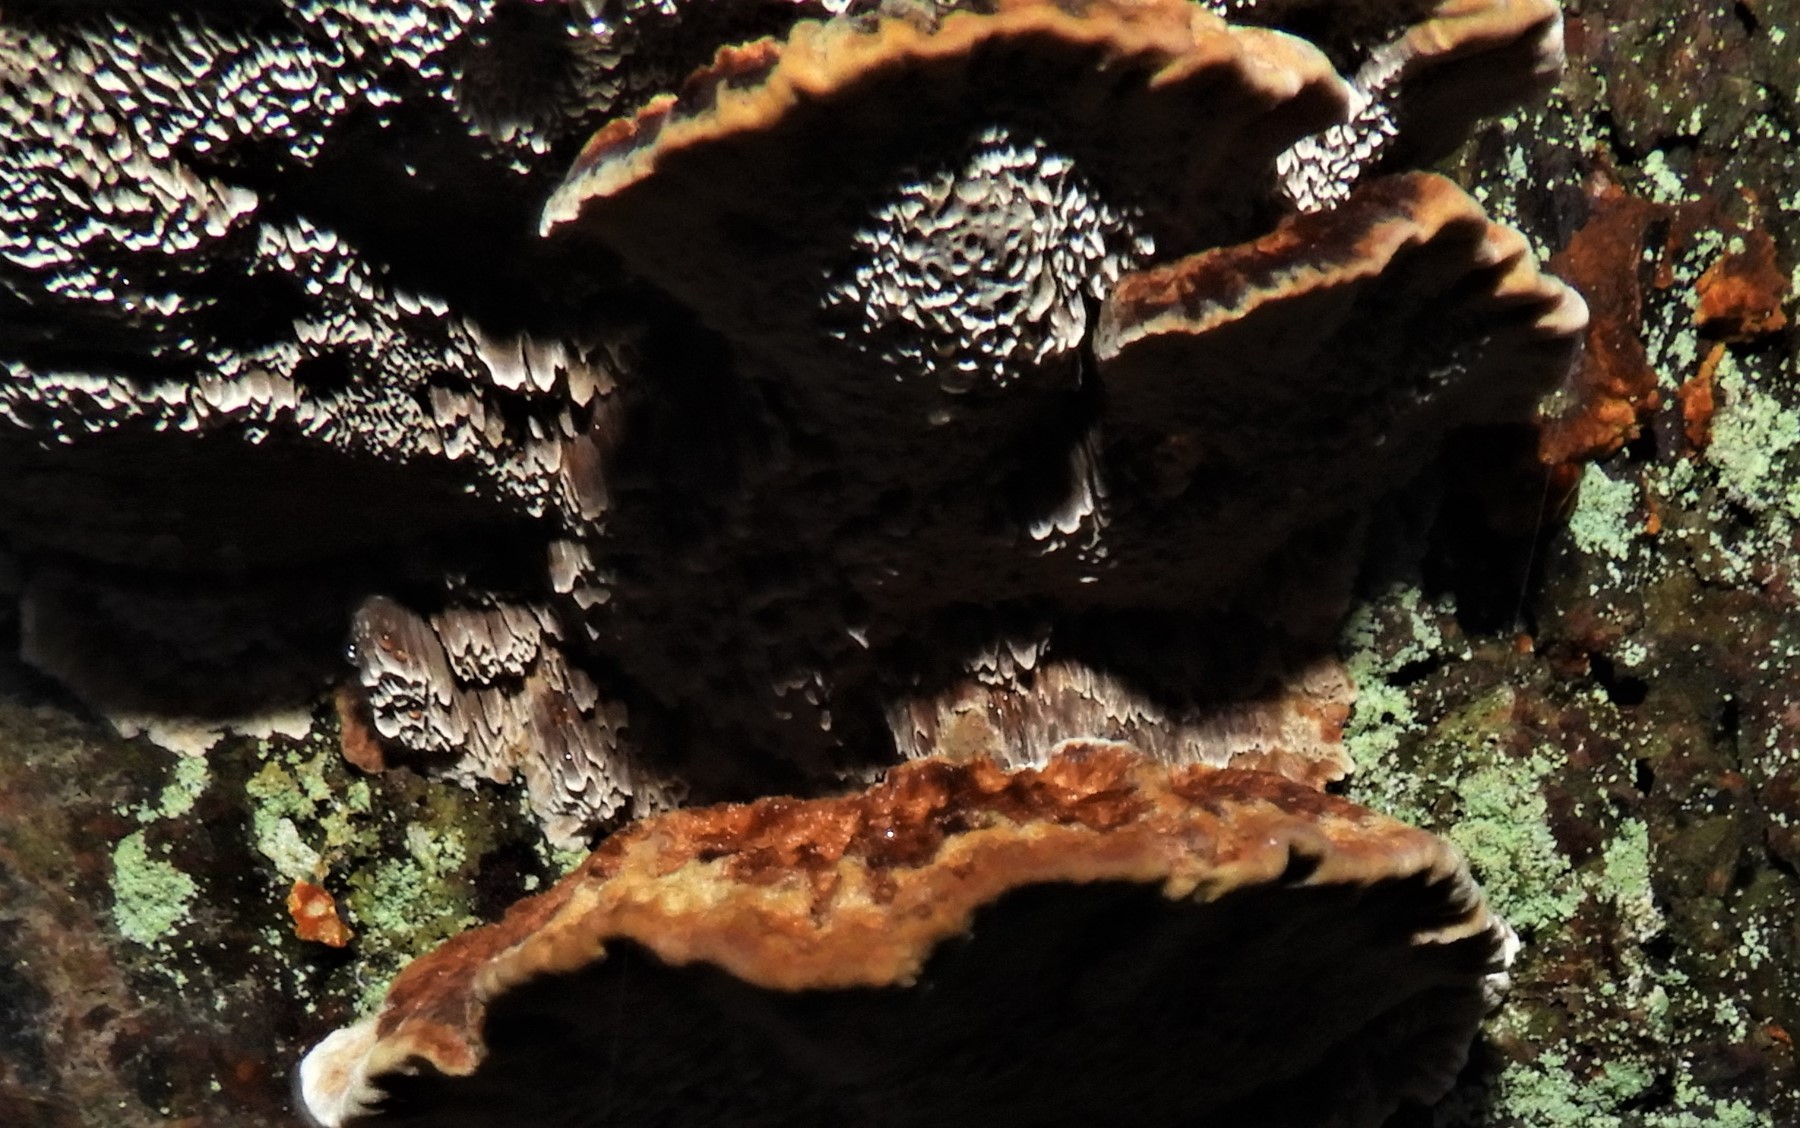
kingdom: Fungi
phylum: Basidiomycota
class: Agaricomycetes
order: Hymenochaetales
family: Hymenochaetaceae
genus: Xanthoporia
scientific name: Xanthoporia radiata
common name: elle-spejlporesvamp
